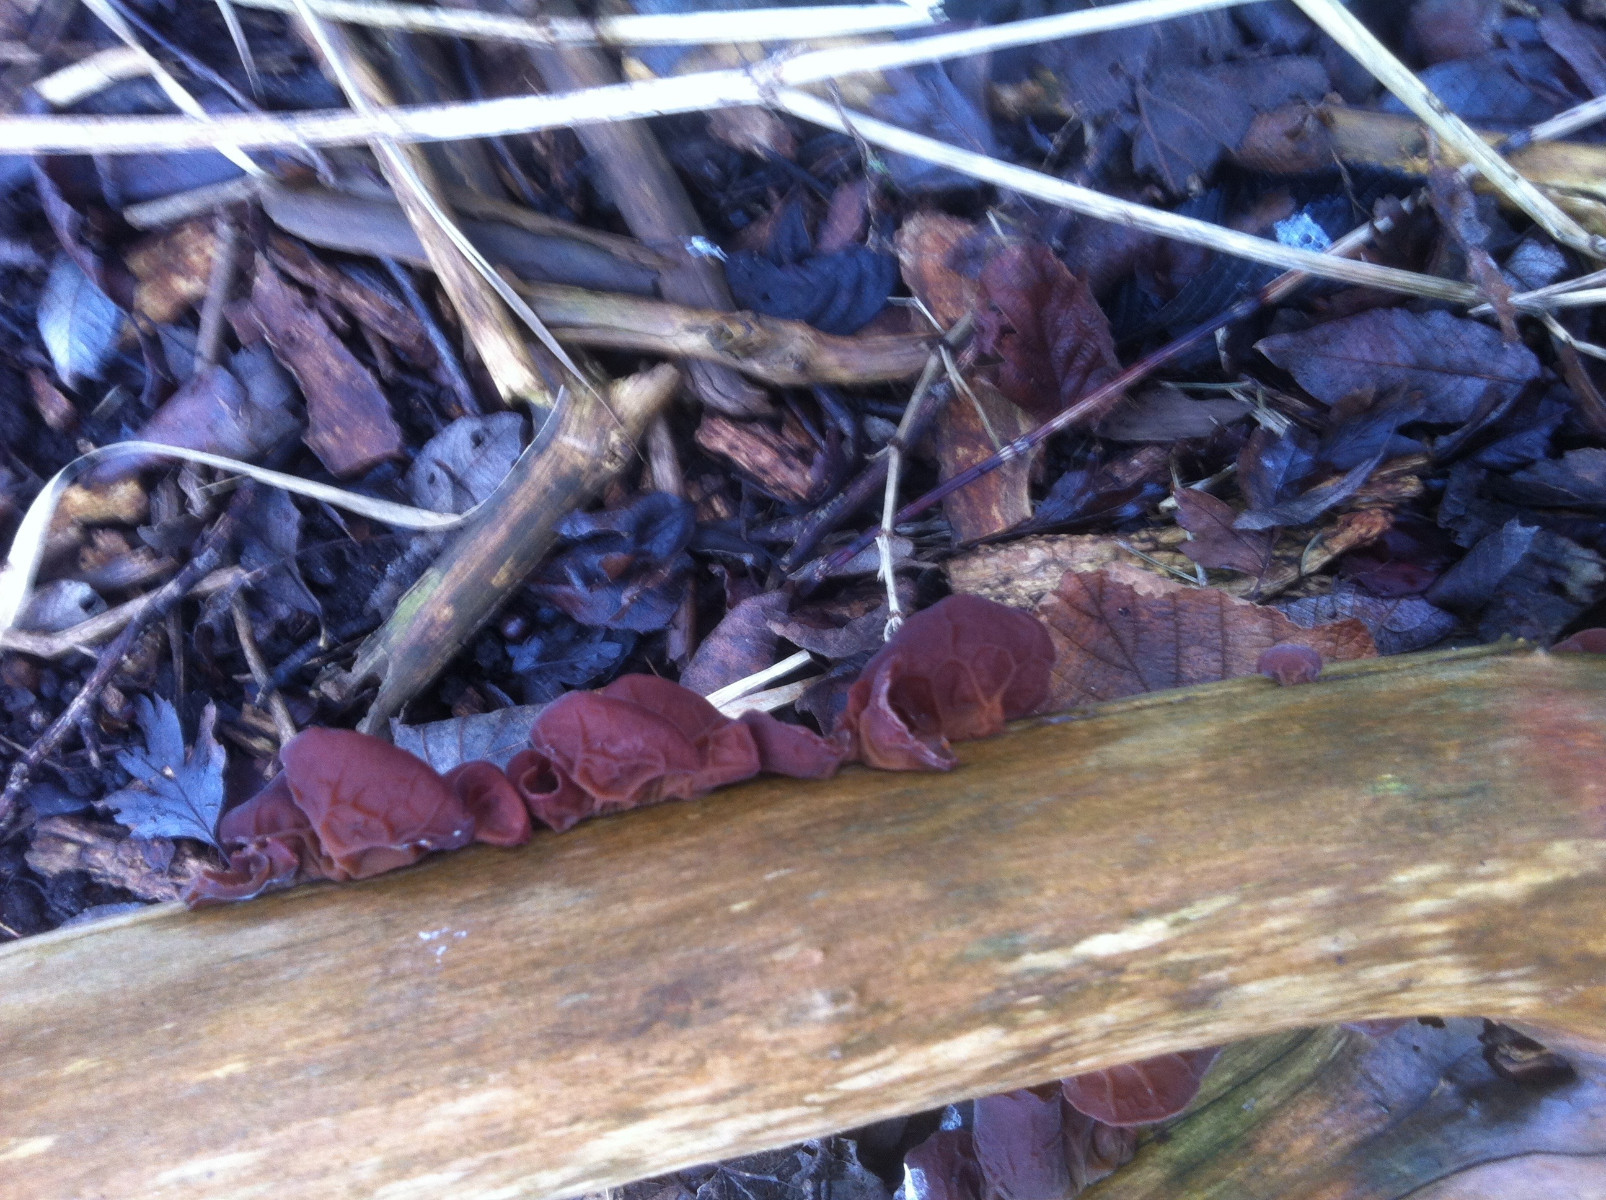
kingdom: Fungi
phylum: Basidiomycota
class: Agaricomycetes
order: Auriculariales
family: Auriculariaceae
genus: Auricularia
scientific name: Auricularia auricula-judae
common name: almindelig judasøre
